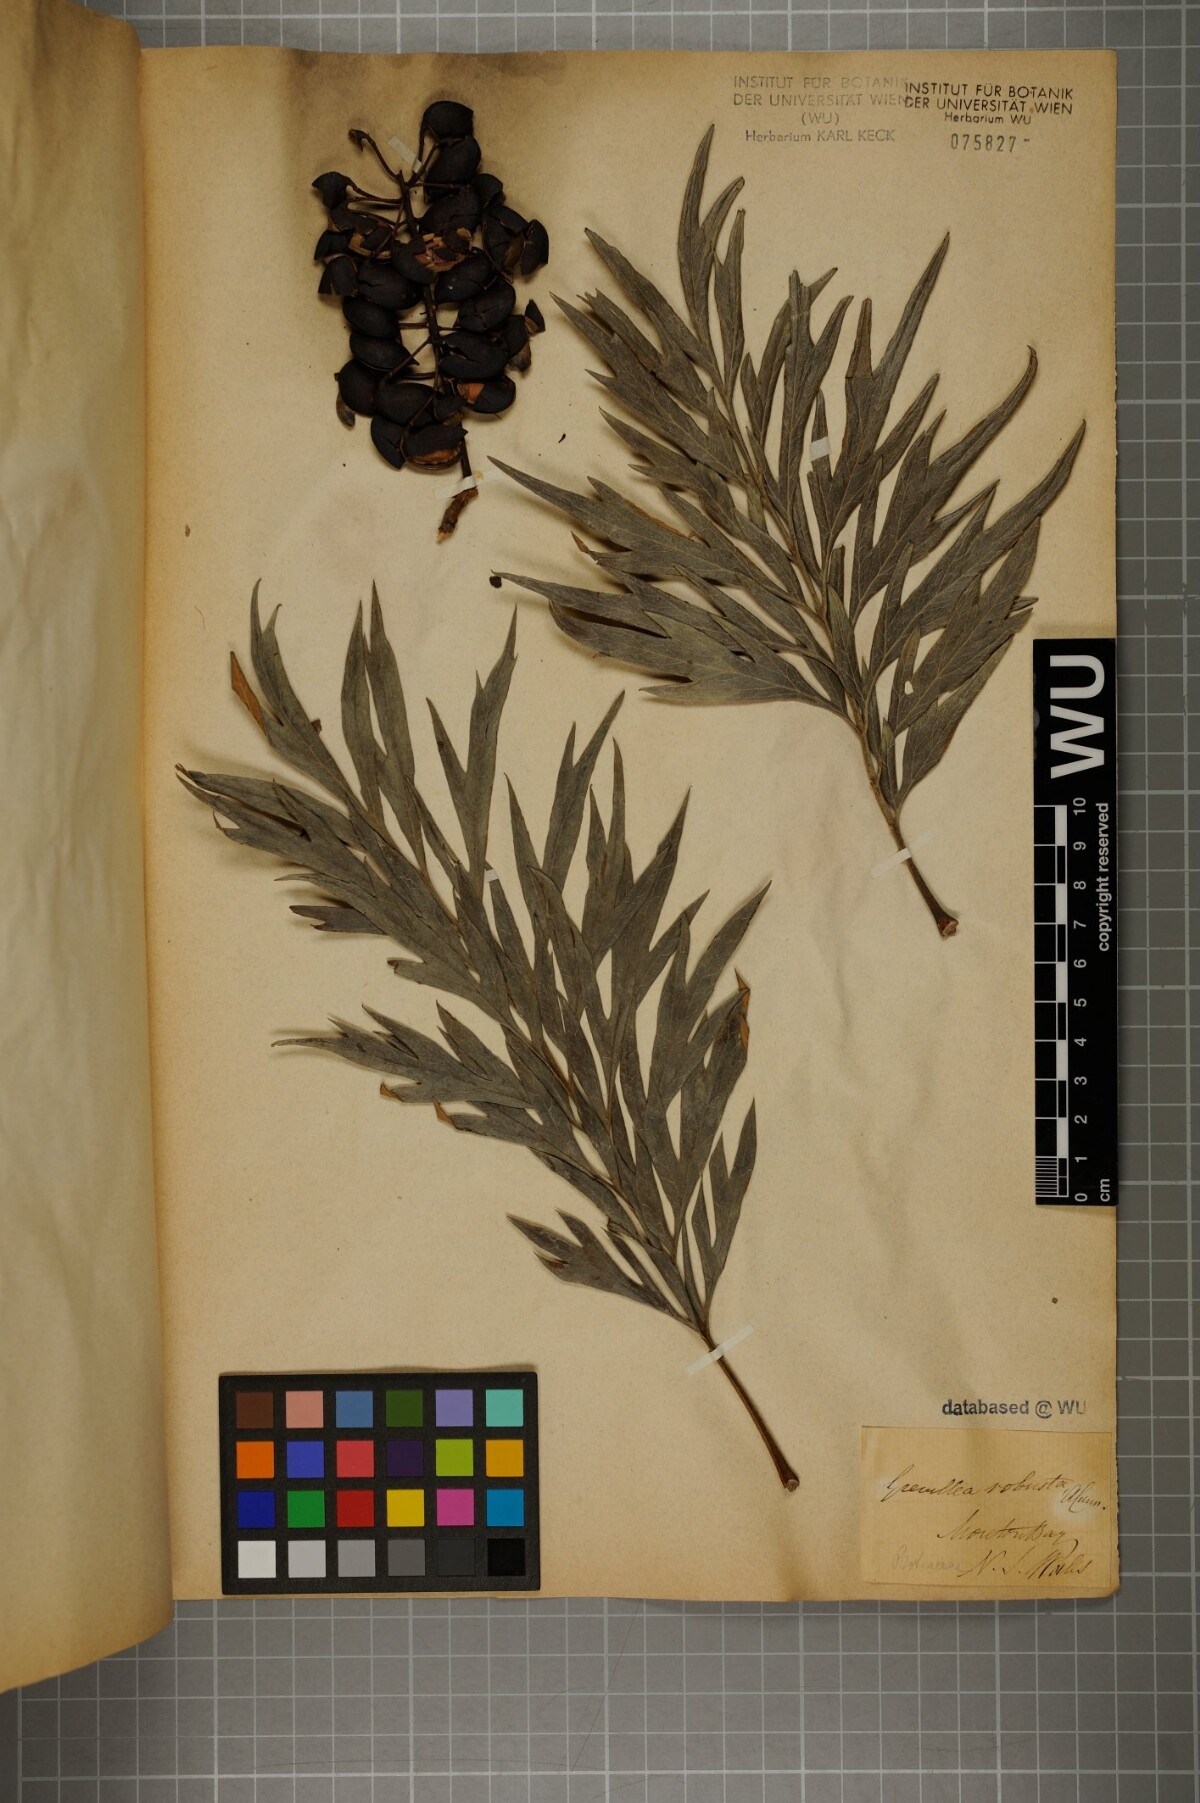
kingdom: Plantae
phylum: Tracheophyta
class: Magnoliopsida
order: Proteales
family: Proteaceae
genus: Grevillea
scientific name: Grevillea robusta
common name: Silkoak
